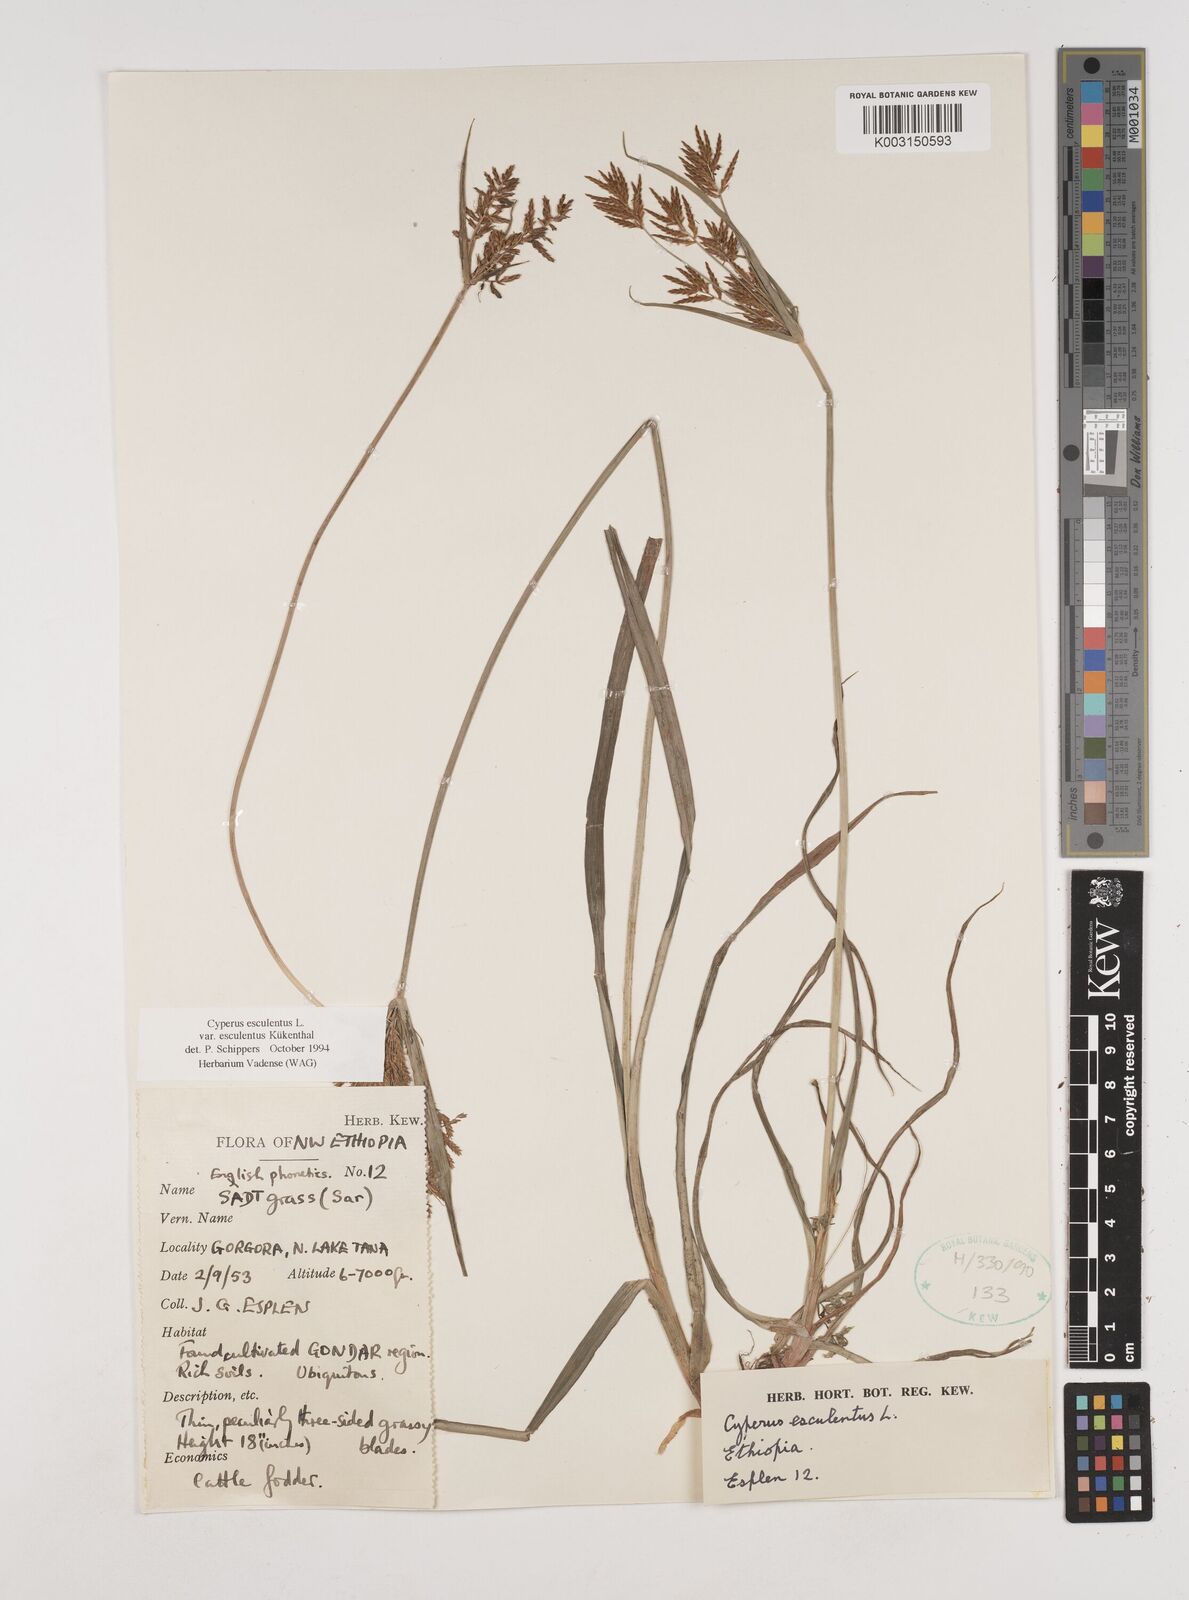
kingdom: Plantae
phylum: Tracheophyta
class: Liliopsida
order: Poales
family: Cyperaceae
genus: Cyperus
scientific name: Cyperus esculentus
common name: Yellow nutsedge
